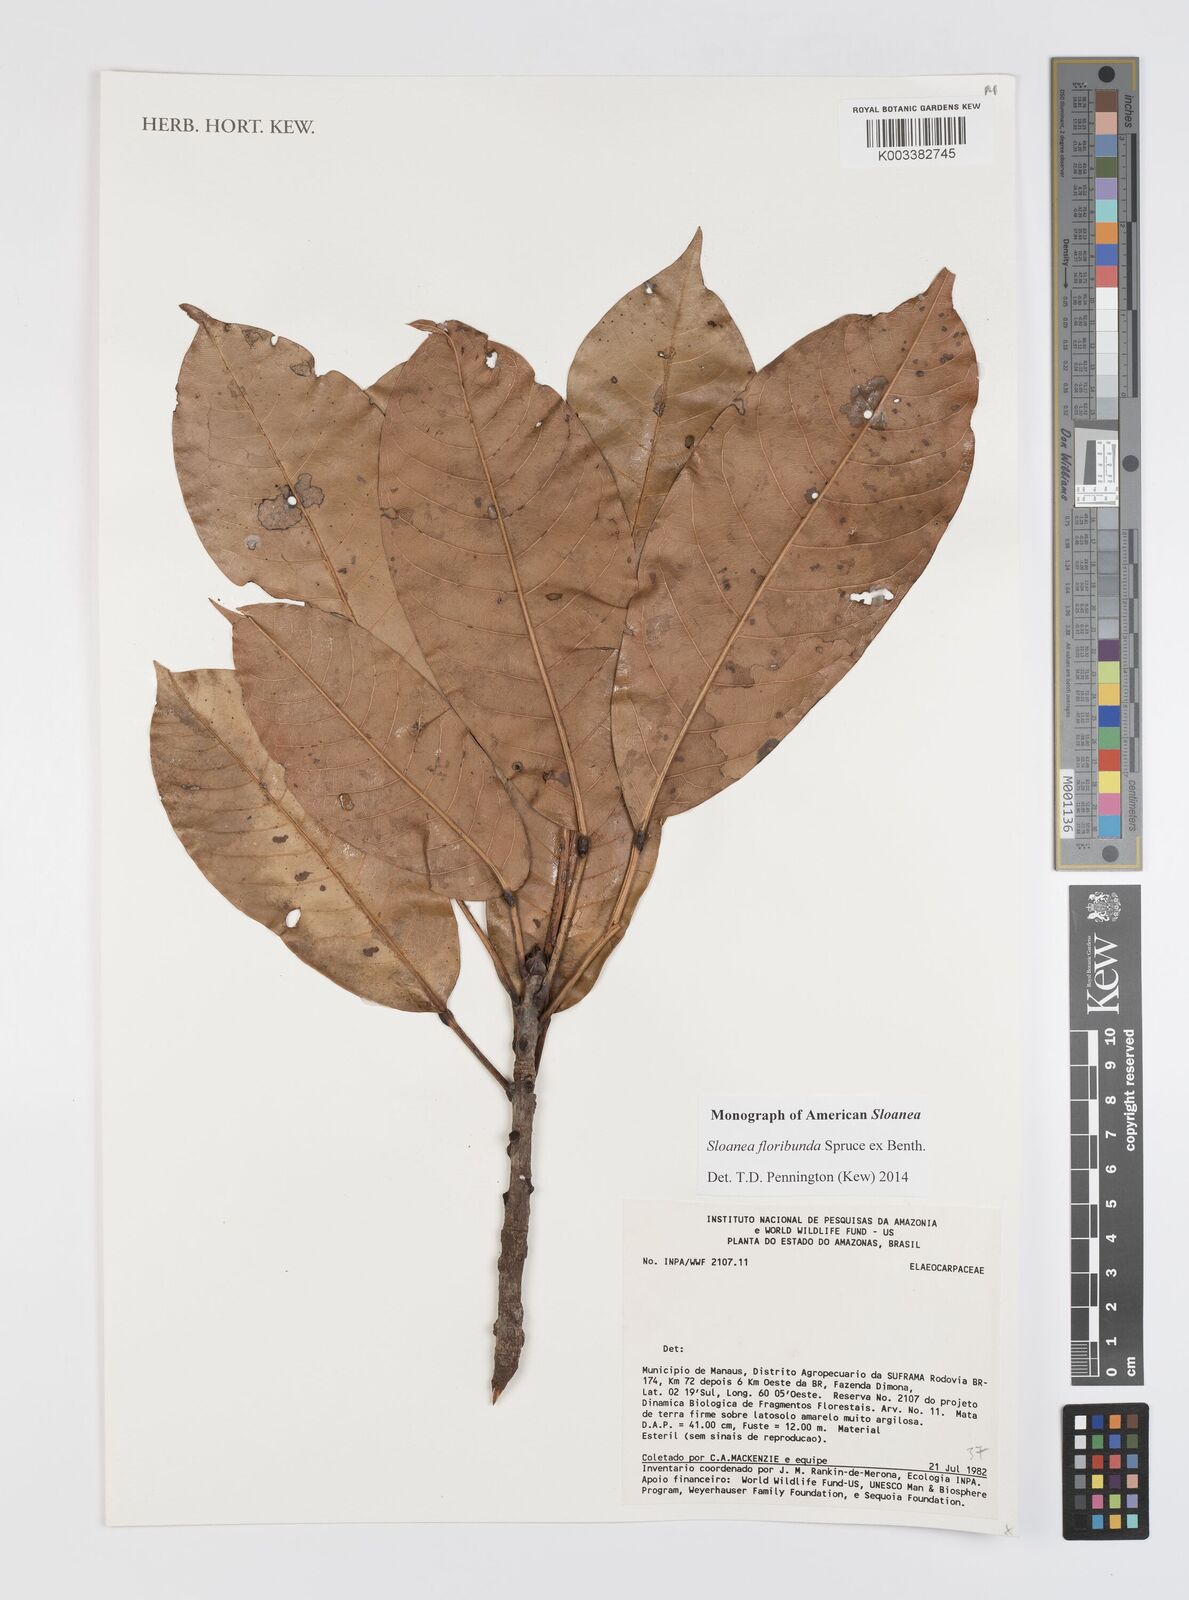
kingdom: Plantae
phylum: Tracheophyta
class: Magnoliopsida
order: Oxalidales
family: Elaeocarpaceae
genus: Sloanea
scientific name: Sloanea floribunda
